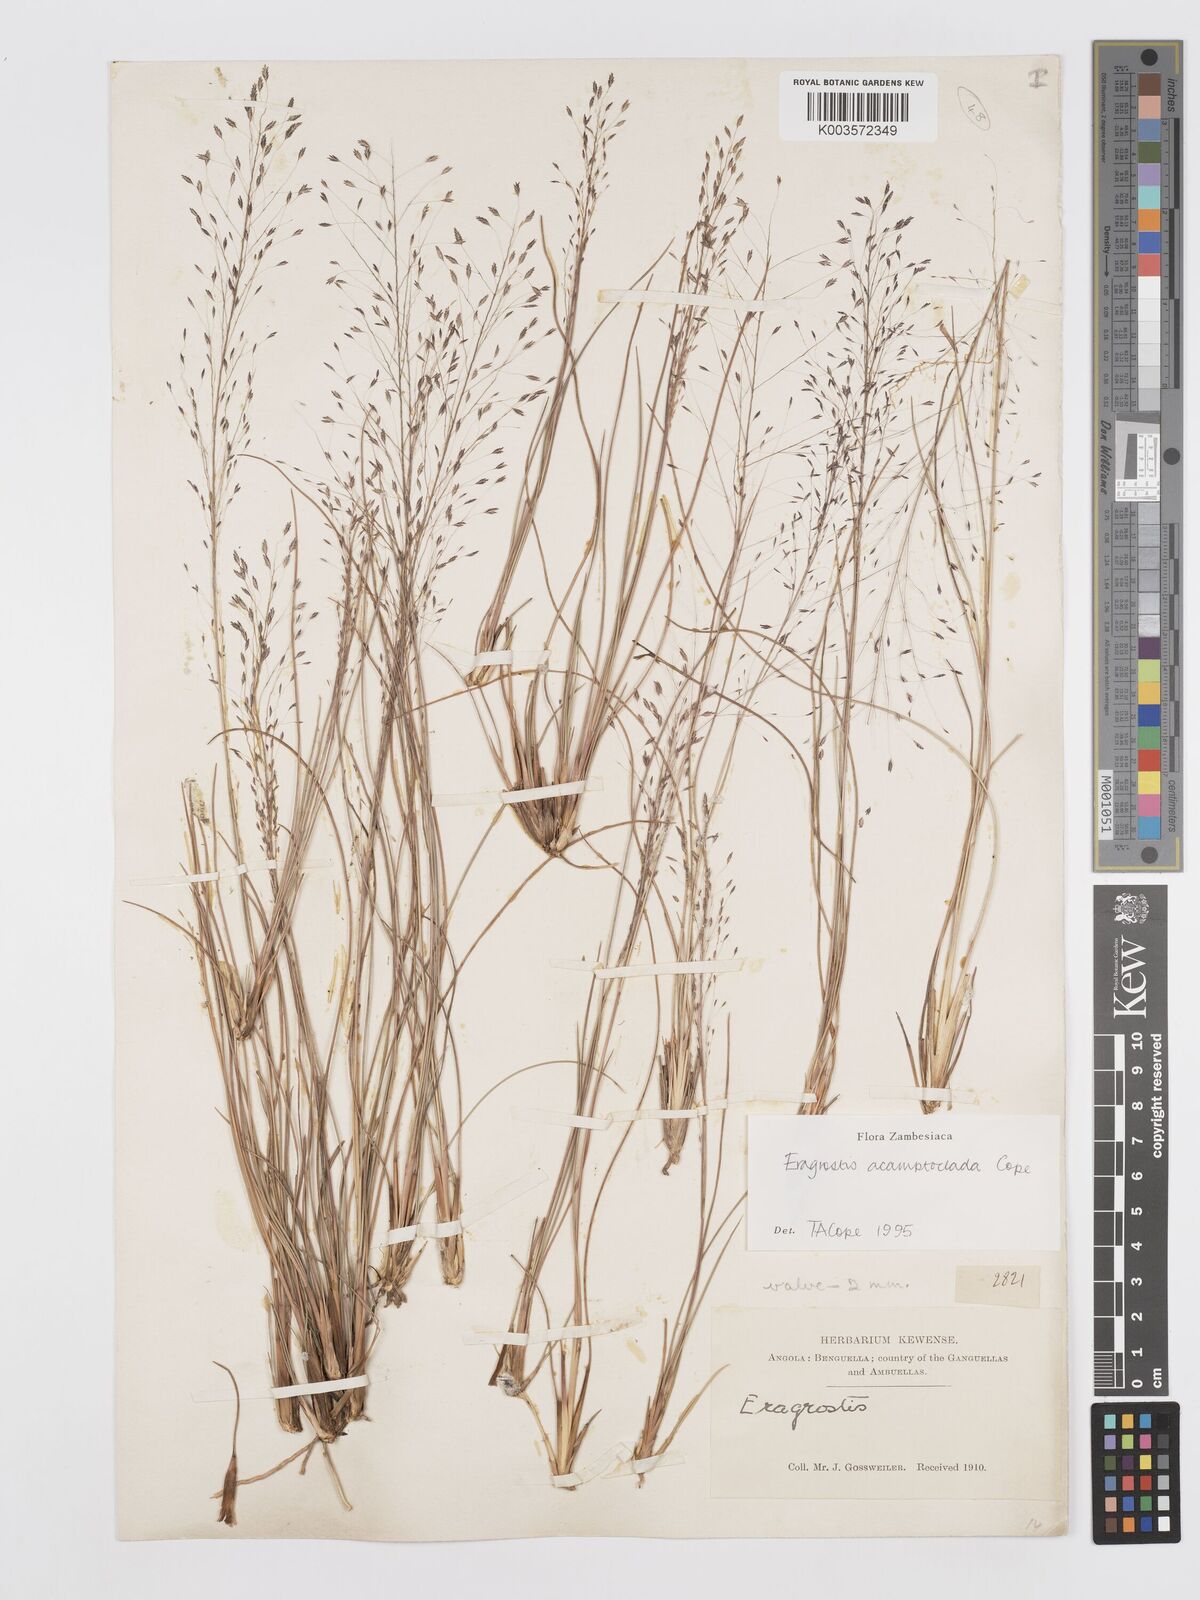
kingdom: Plantae
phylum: Tracheophyta
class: Liliopsida
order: Poales
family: Poaceae
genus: Eragrostis
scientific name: Eragrostis acamptoclada
